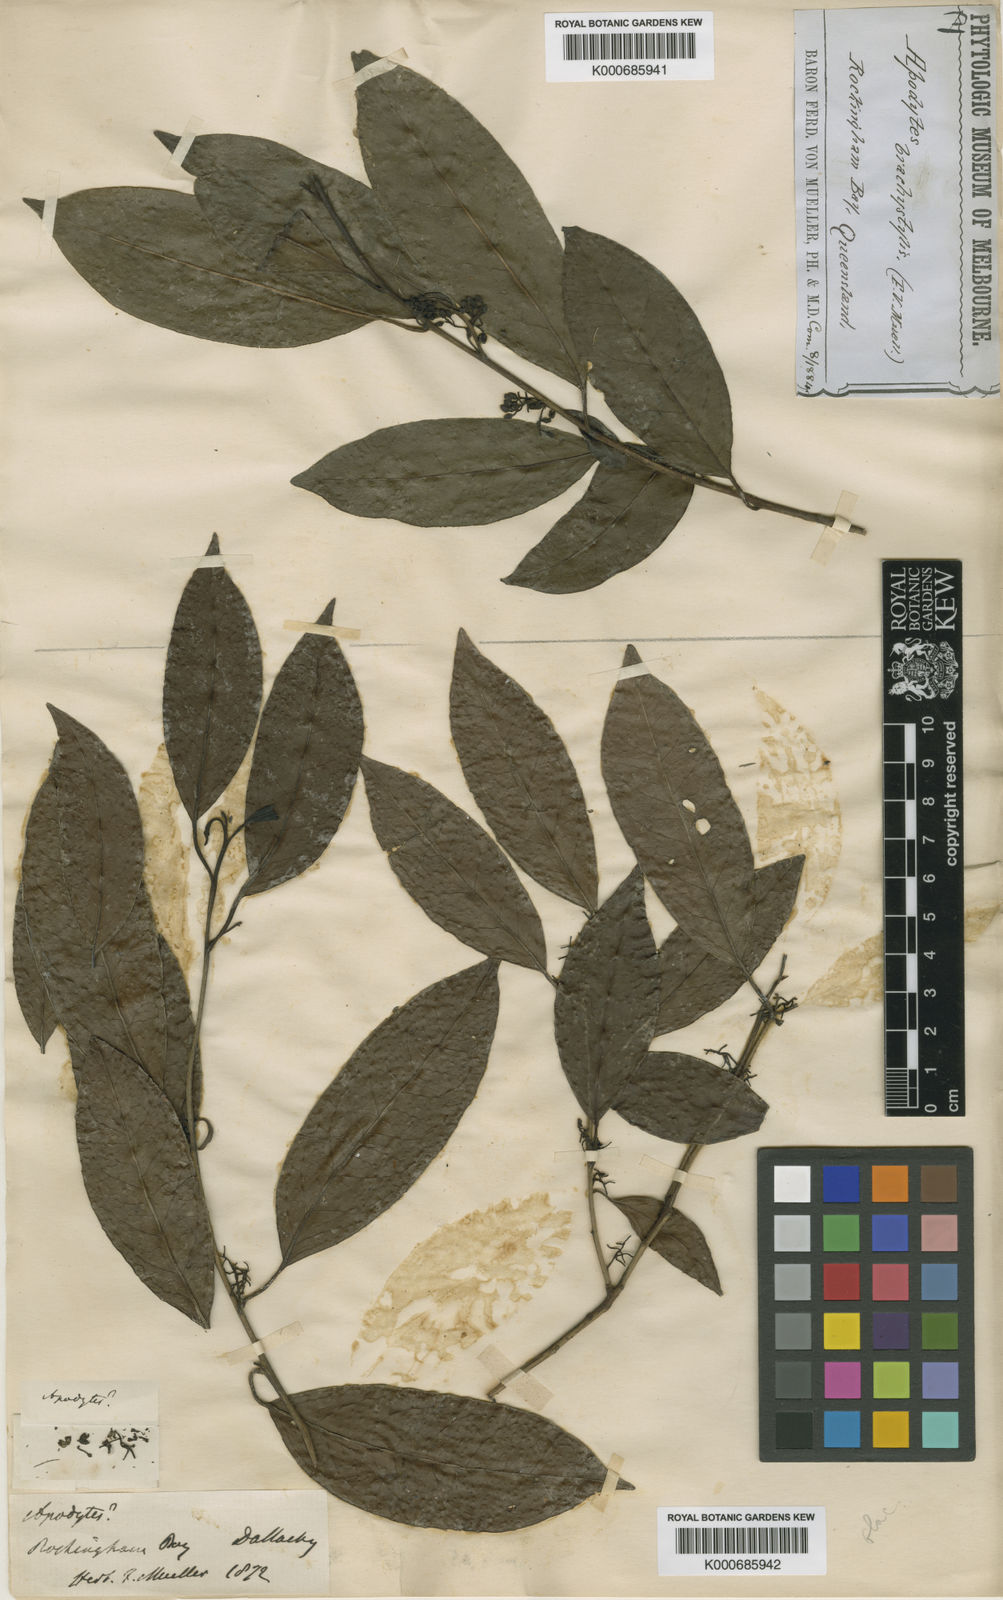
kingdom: Plantae
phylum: Tracheophyta
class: Magnoliopsida
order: Metteniusales
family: Metteniusaceae
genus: Apodytes
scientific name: Apodytes brachystylis
